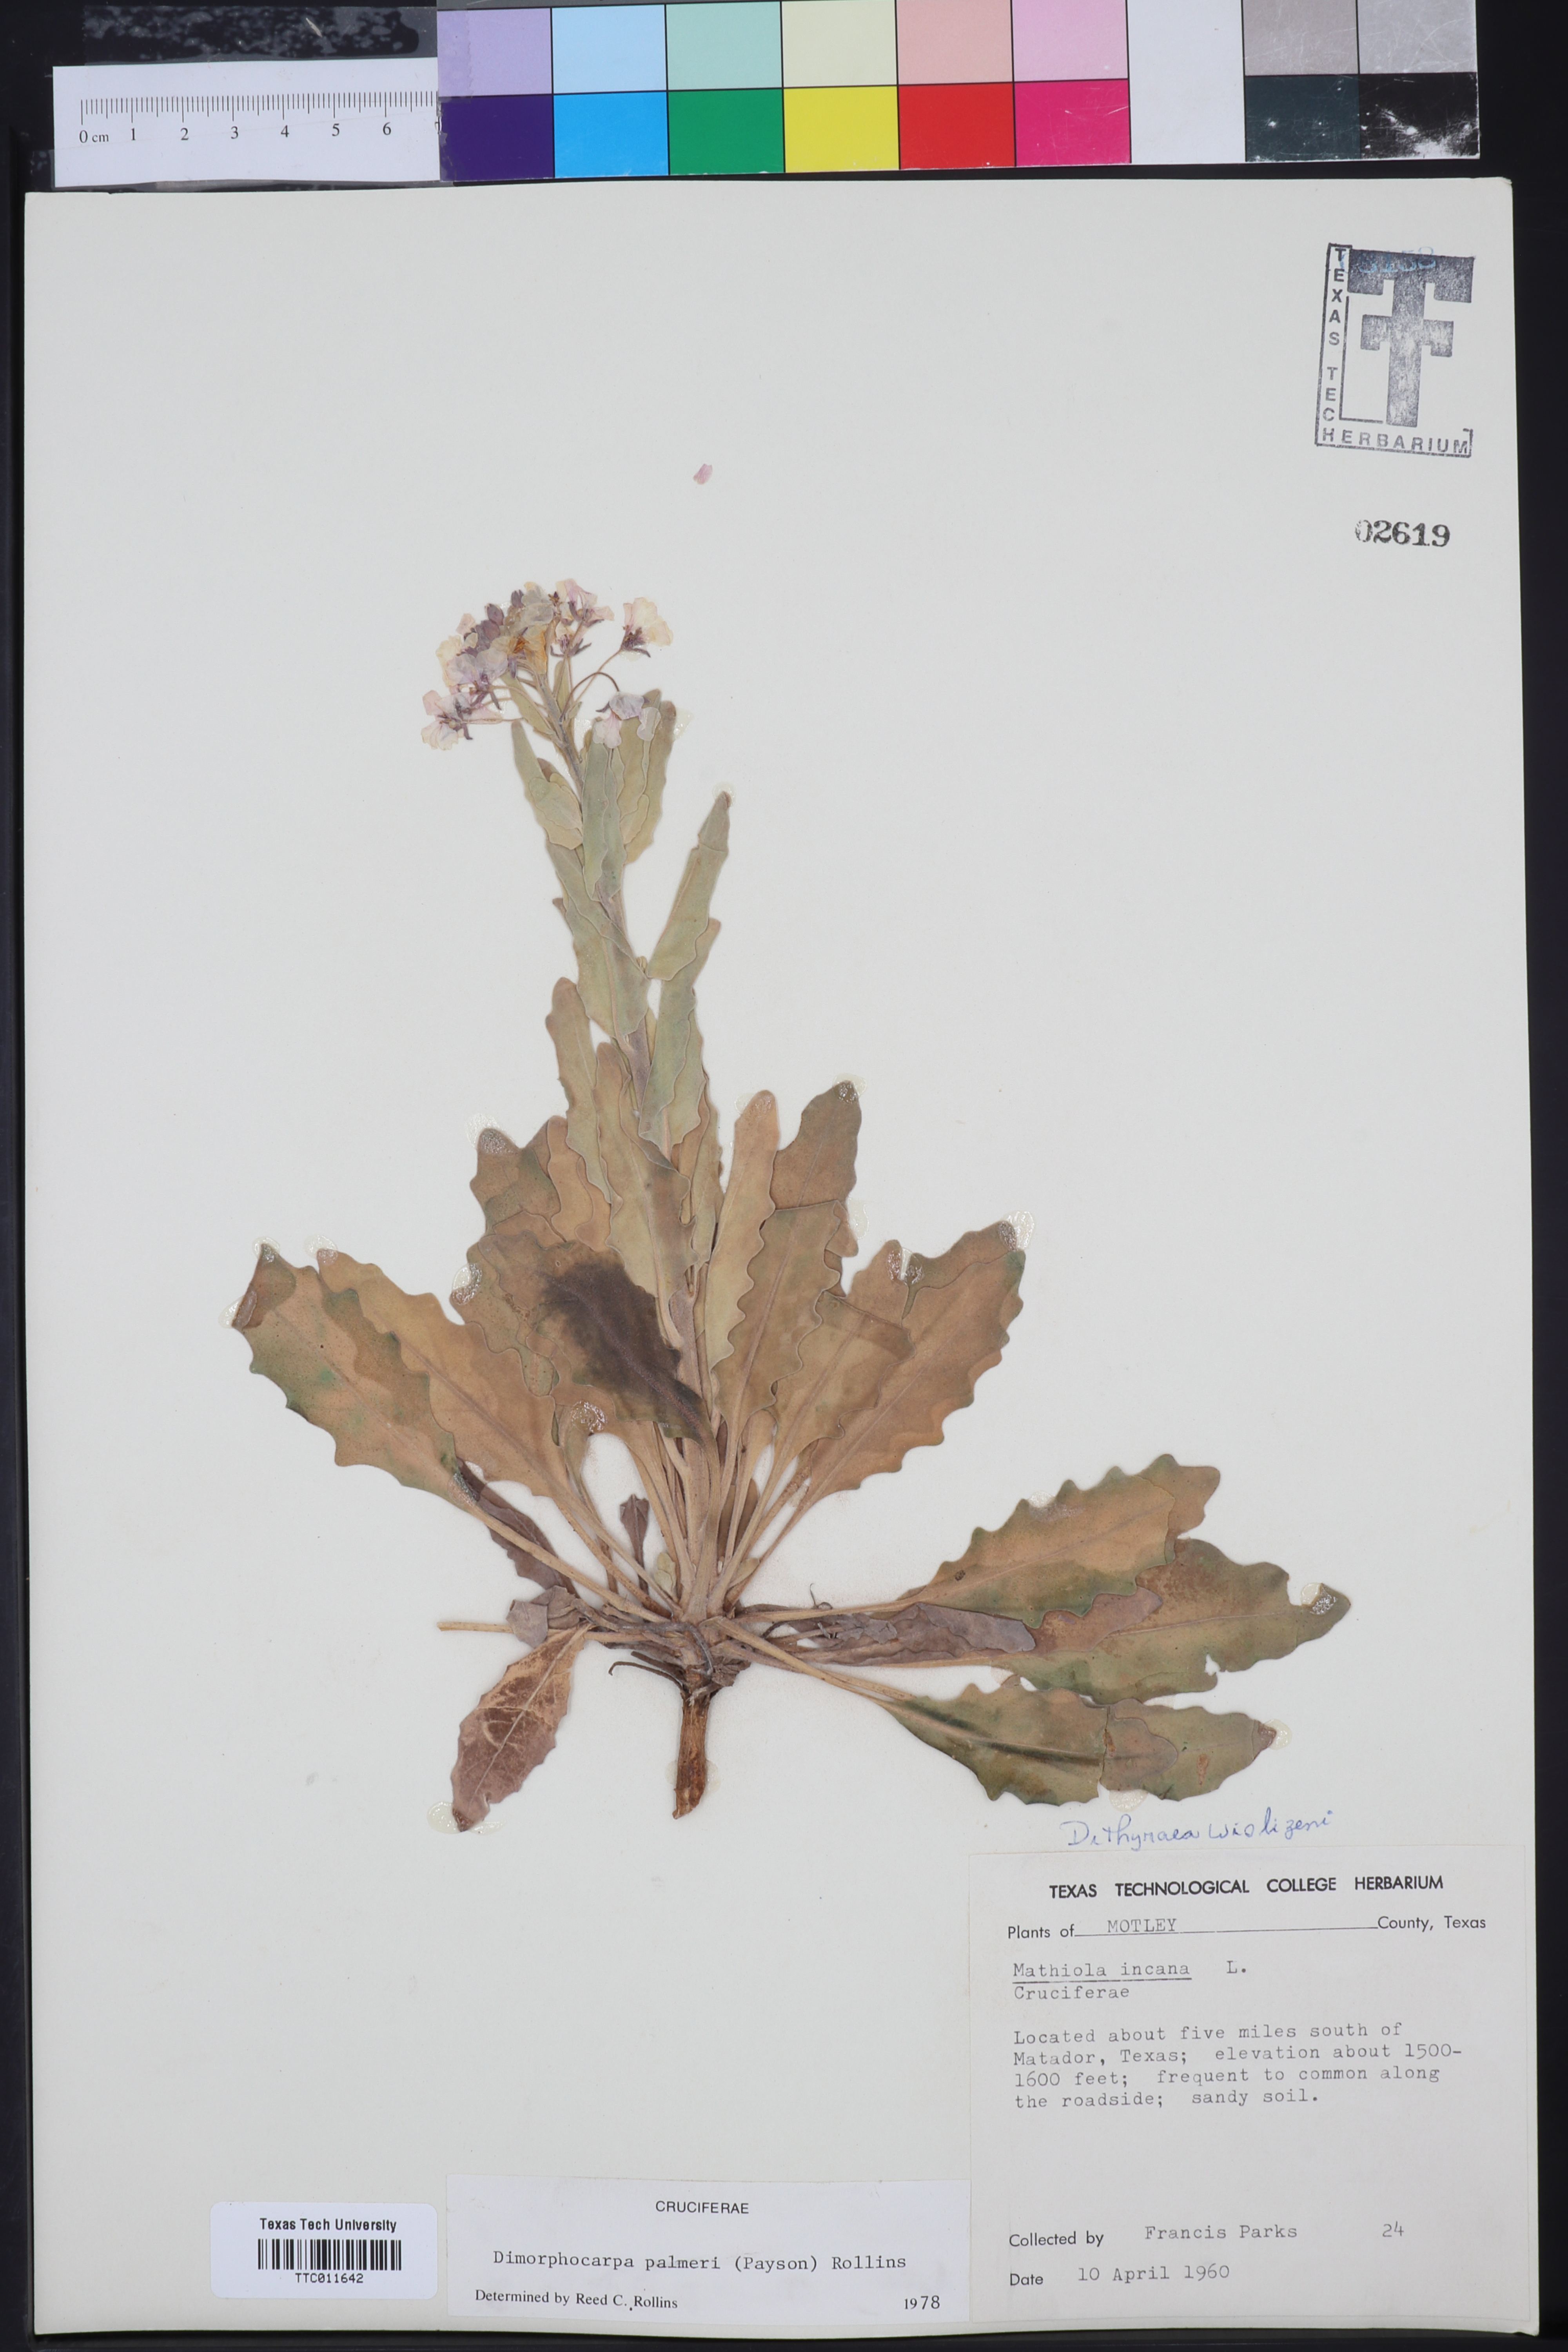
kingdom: Plantae
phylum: Tracheophyta
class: Magnoliopsida
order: Brassicales
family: Brassicaceae
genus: Dimorphocarpa
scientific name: Dimorphocarpa candicans
